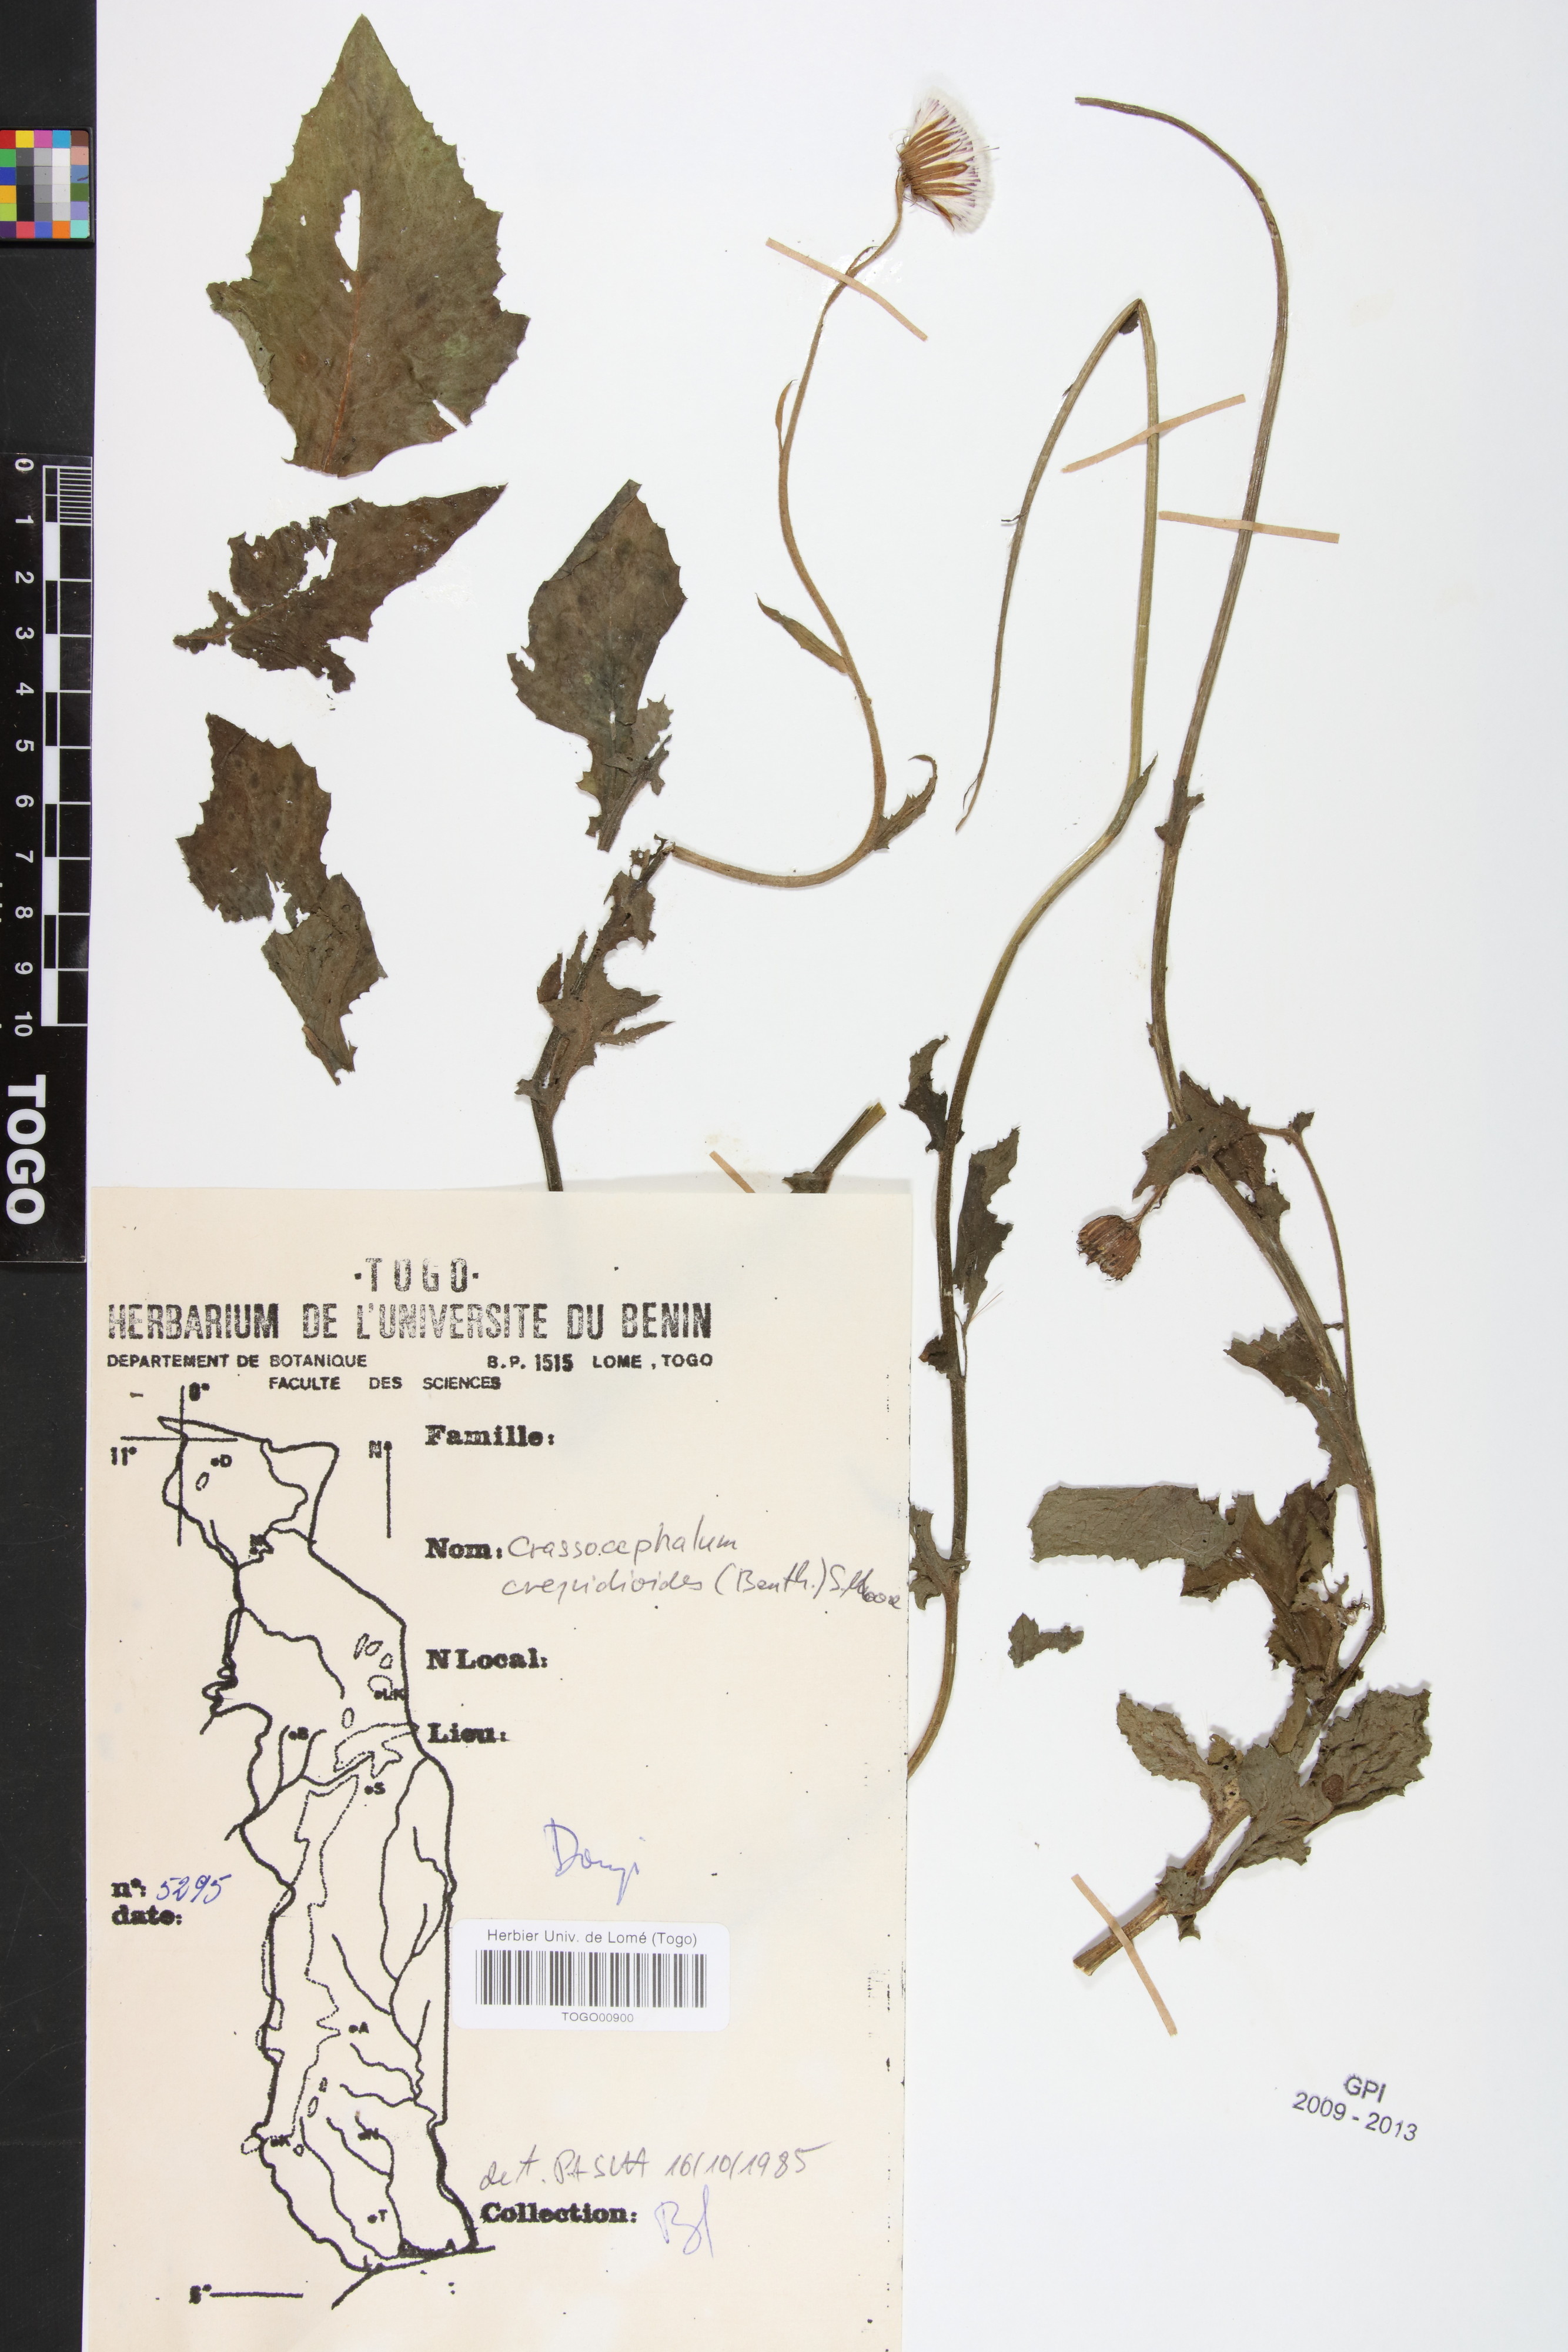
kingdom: Plantae
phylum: Tracheophyta
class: Magnoliopsida
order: Asterales
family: Asteraceae
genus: Crassocephalum
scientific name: Crassocephalum crepidioides
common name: Redflower ragleaf
